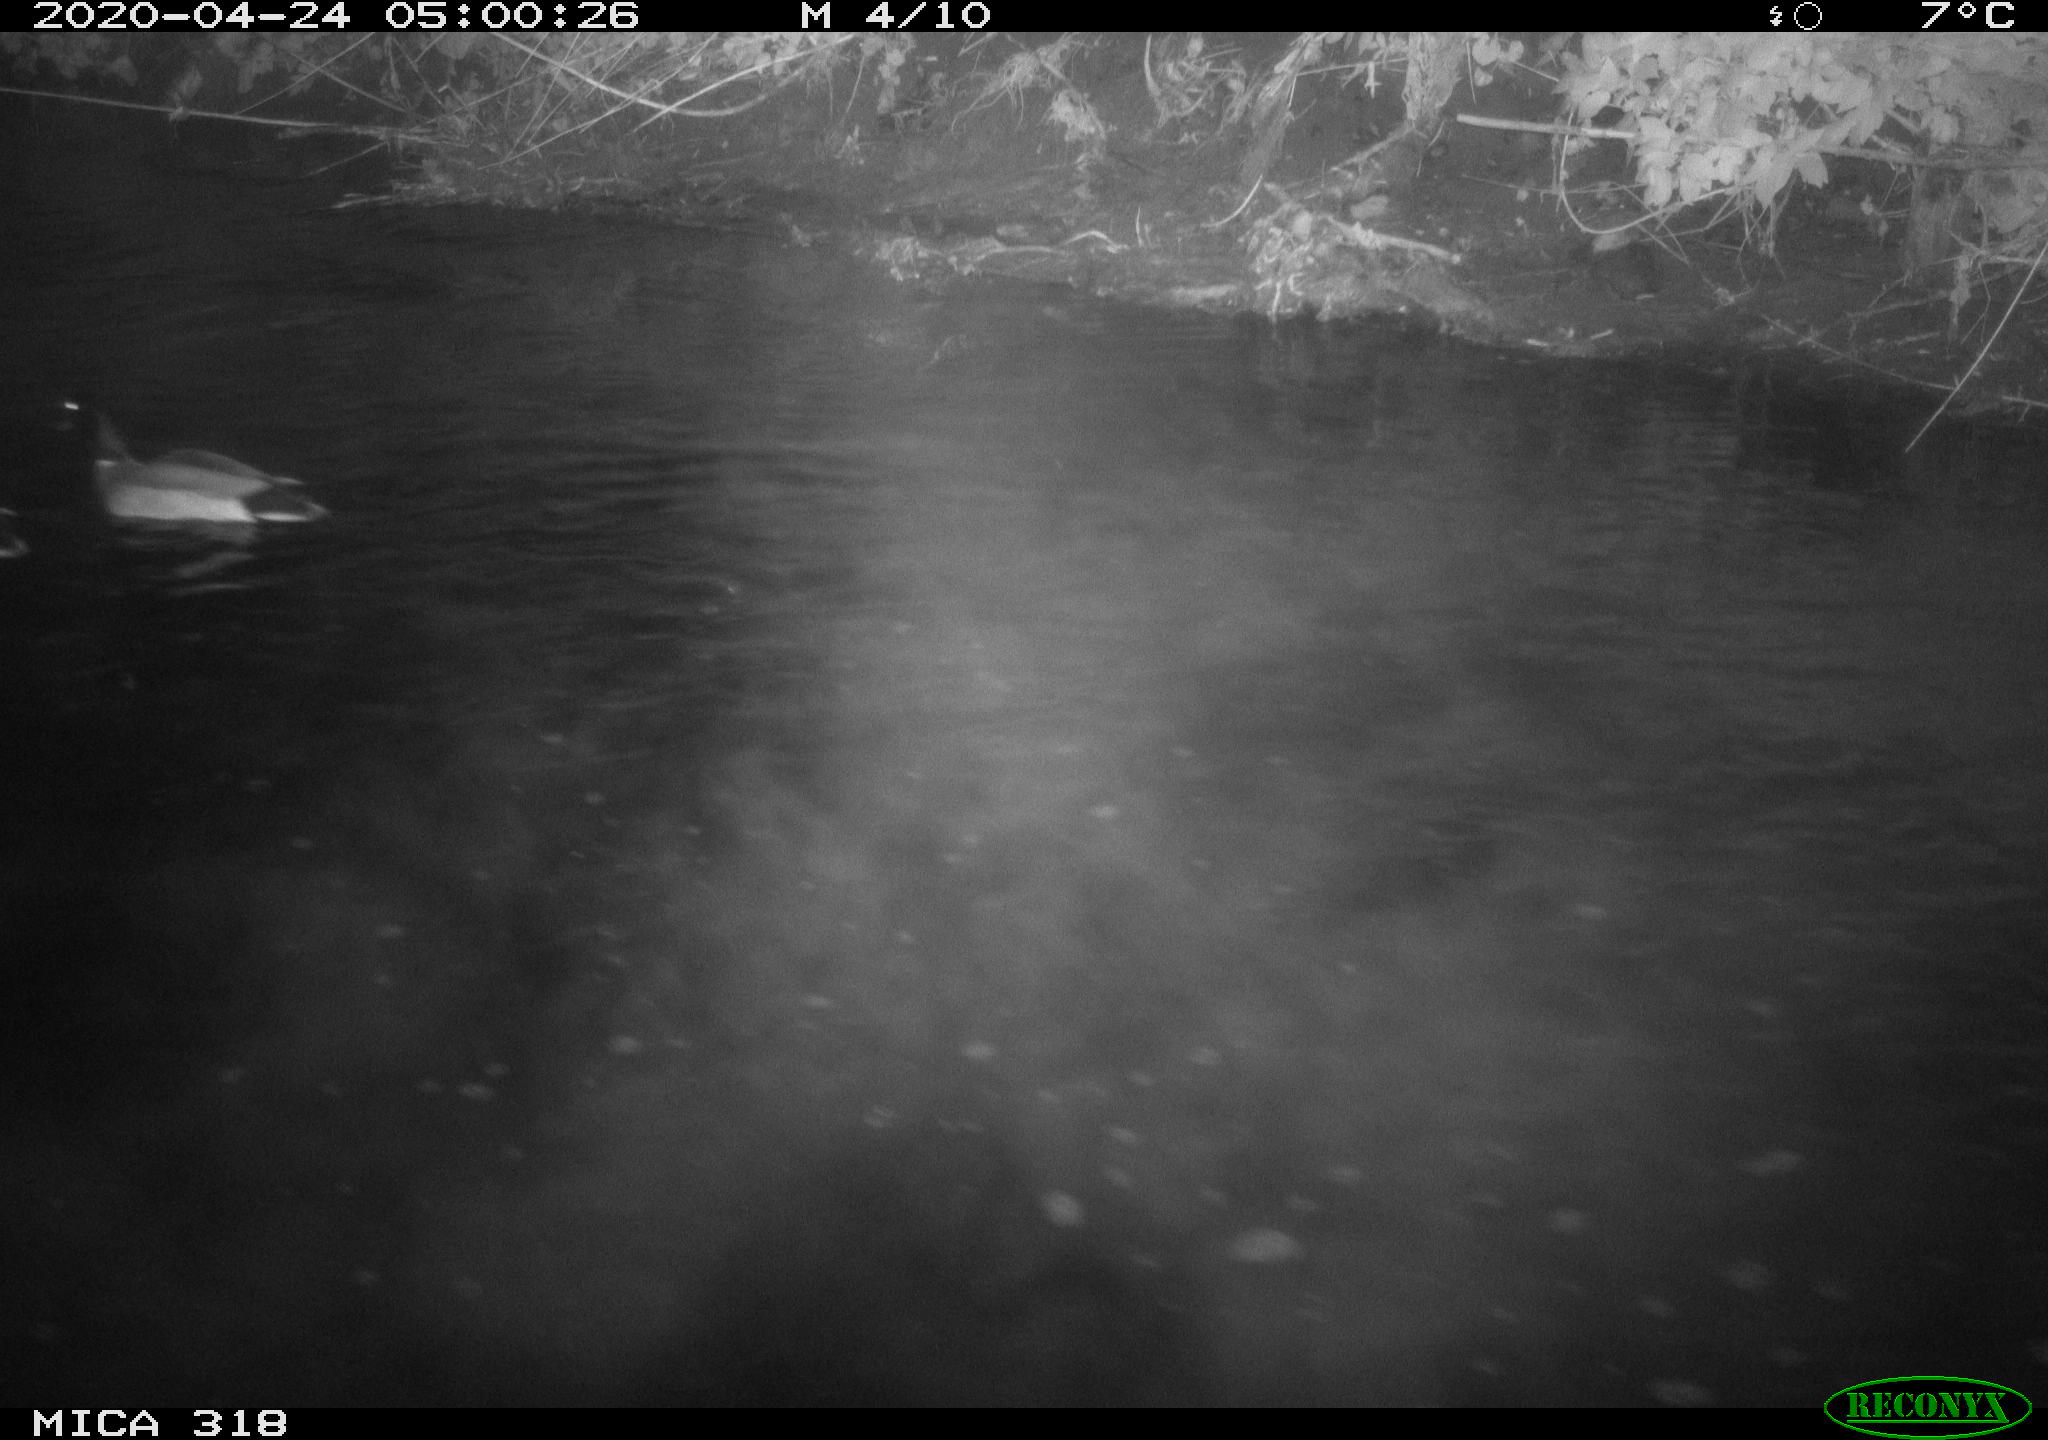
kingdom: Animalia
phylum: Chordata
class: Aves
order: Anseriformes
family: Anatidae
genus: Anas
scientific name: Anas platyrhynchos
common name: Mallard
